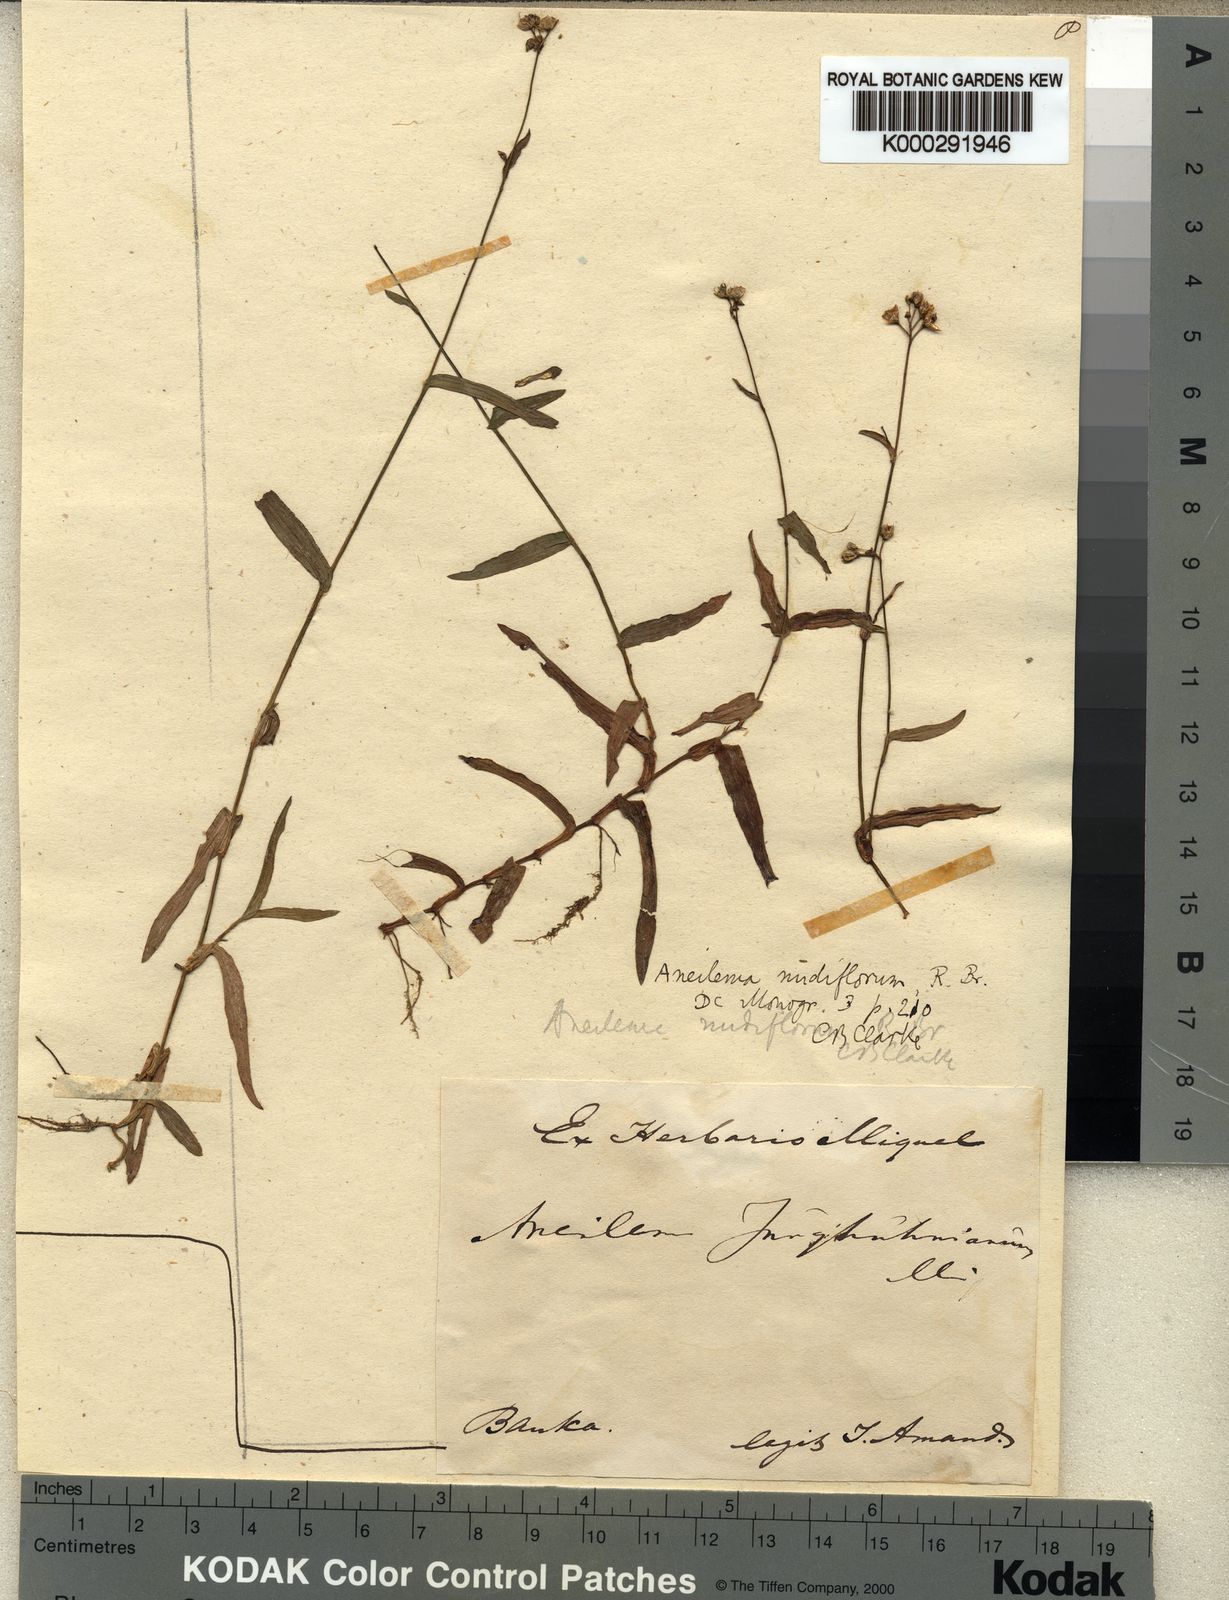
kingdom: Plantae
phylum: Tracheophyta
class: Liliopsida
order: Commelinales
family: Commelinaceae
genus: Murdannia
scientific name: Murdannia nudiflora
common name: Nakedstem dewflower
